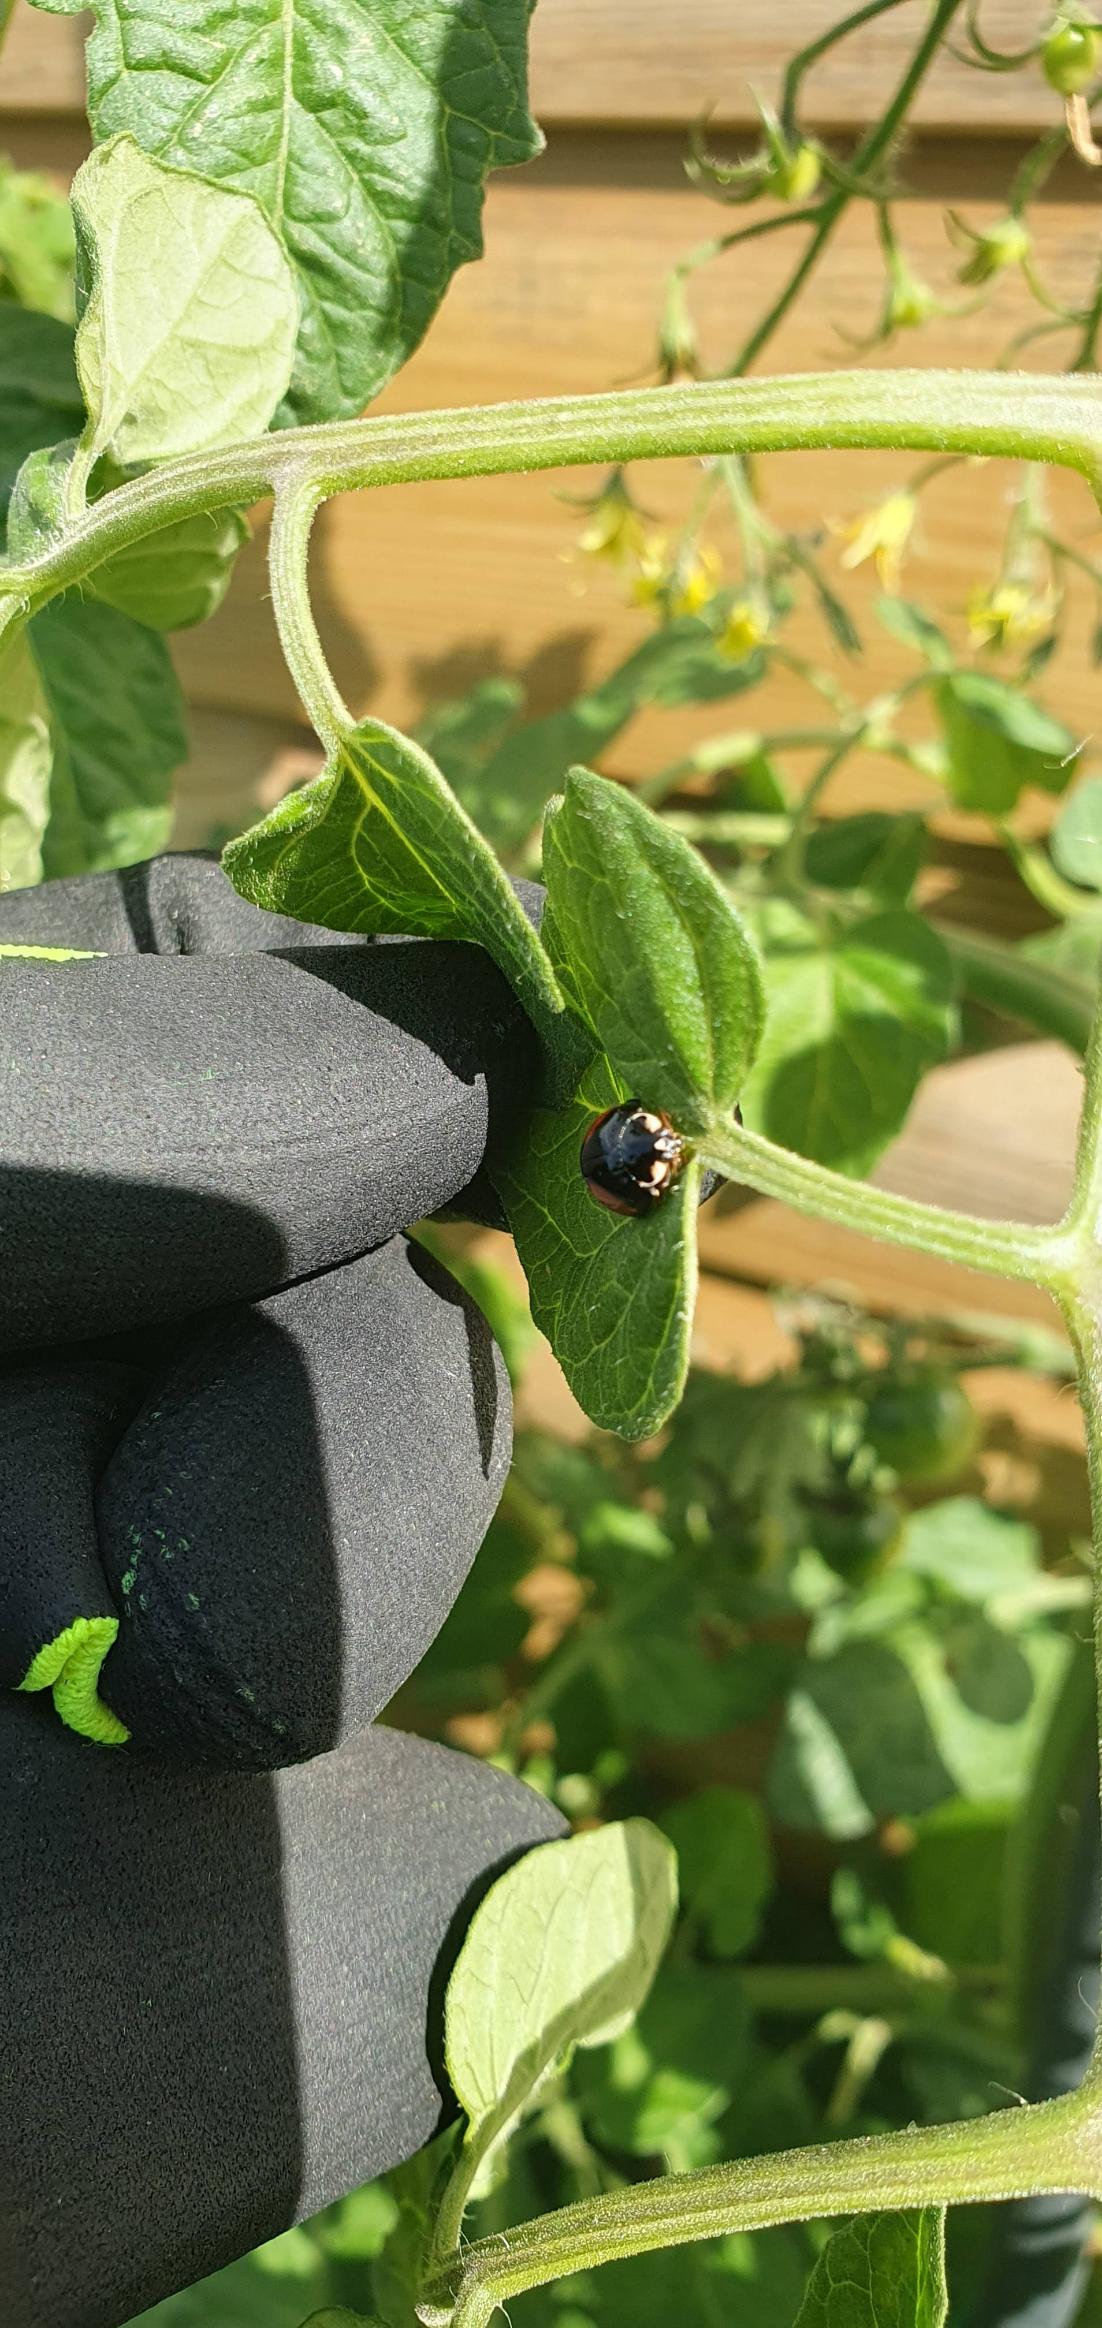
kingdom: Animalia
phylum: Arthropoda
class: Insecta
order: Coleoptera
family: Coccinellidae
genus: Harmonia
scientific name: Harmonia axyridis
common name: Harlekinmariehøne
